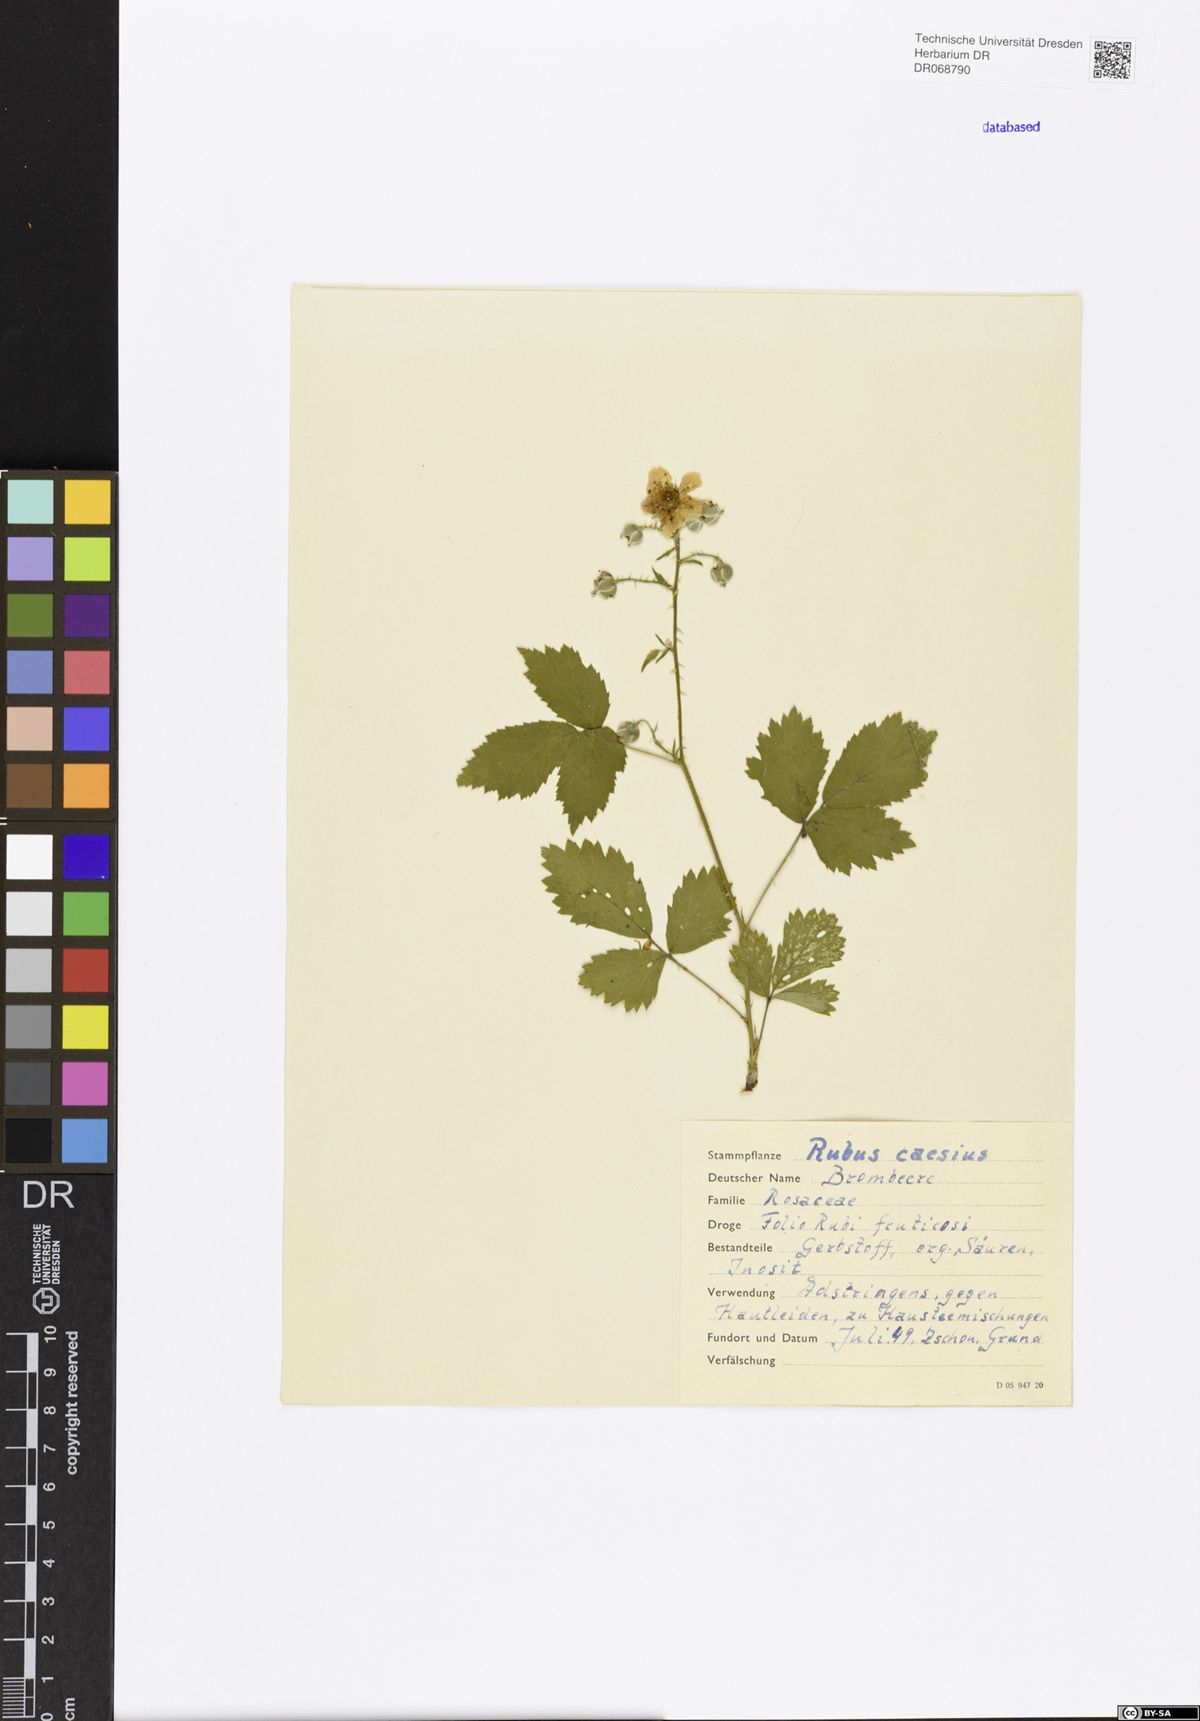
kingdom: Plantae
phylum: Tracheophyta
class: Magnoliopsida
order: Rosales
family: Rosaceae
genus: Rubus
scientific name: Rubus caesius
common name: Dewberry
